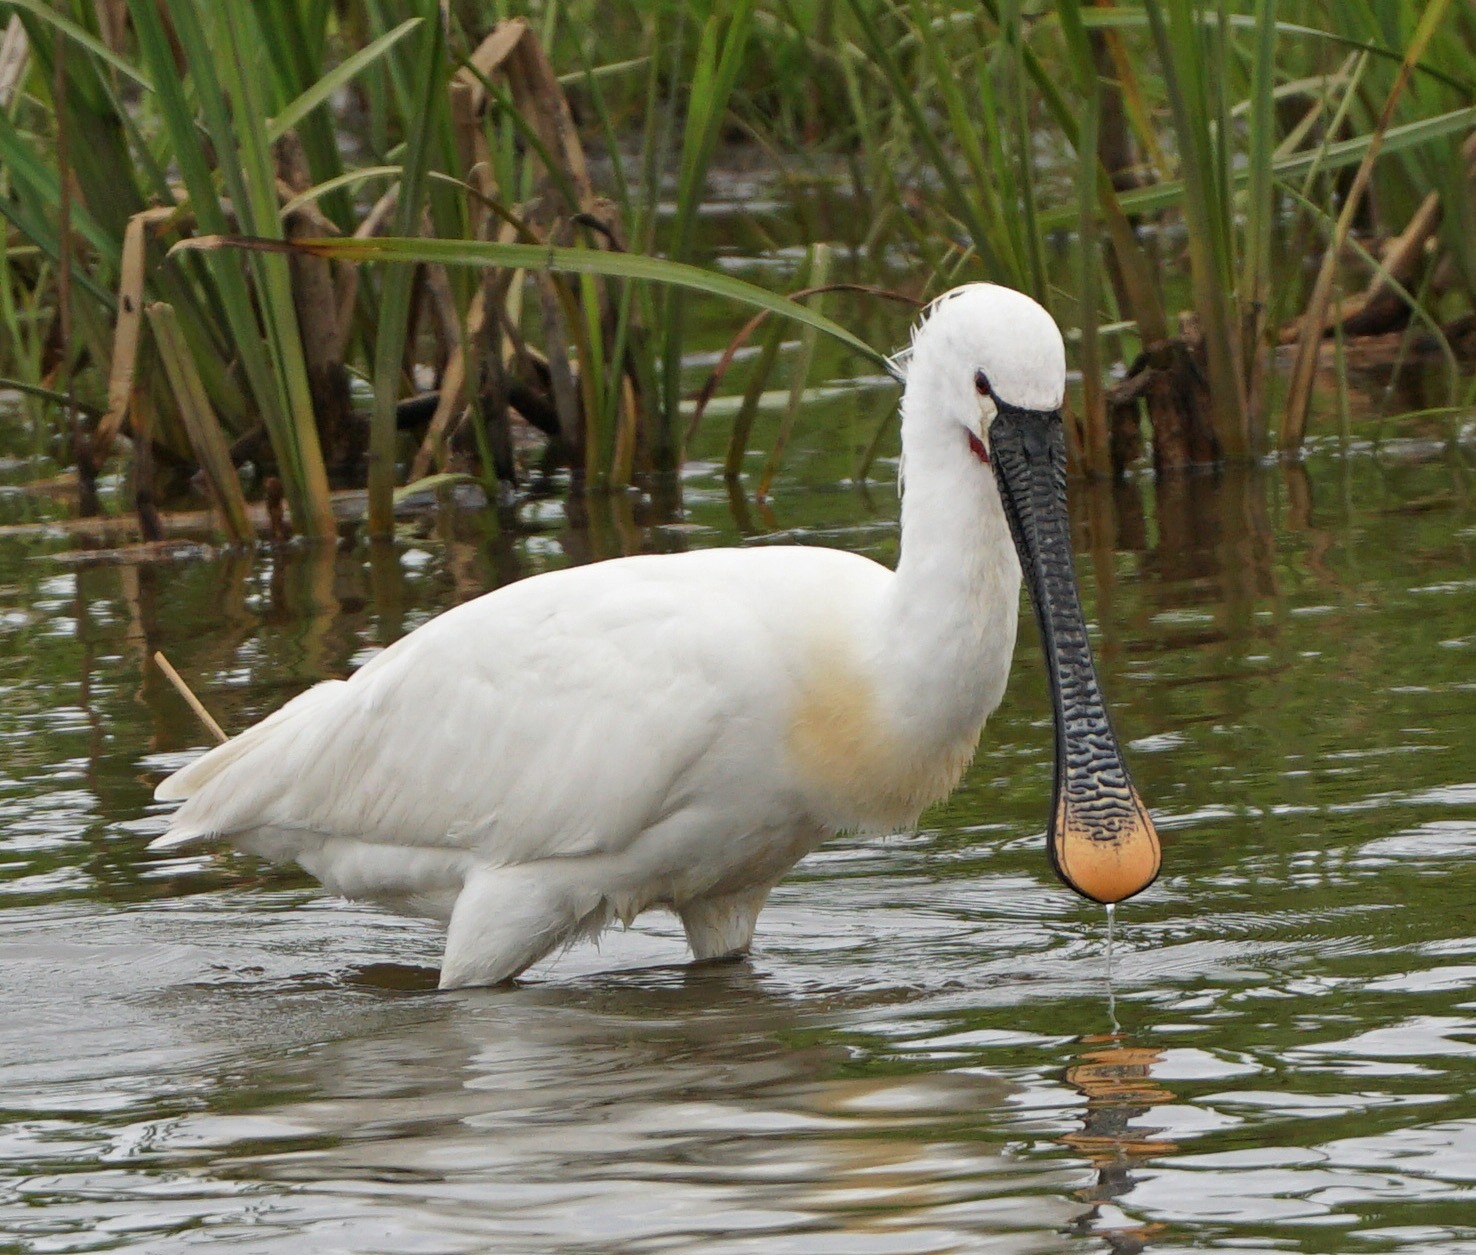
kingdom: Animalia
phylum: Chordata
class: Aves
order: Pelecaniformes
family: Threskiornithidae
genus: Platalea
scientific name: Platalea leucorodia
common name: Skestork
